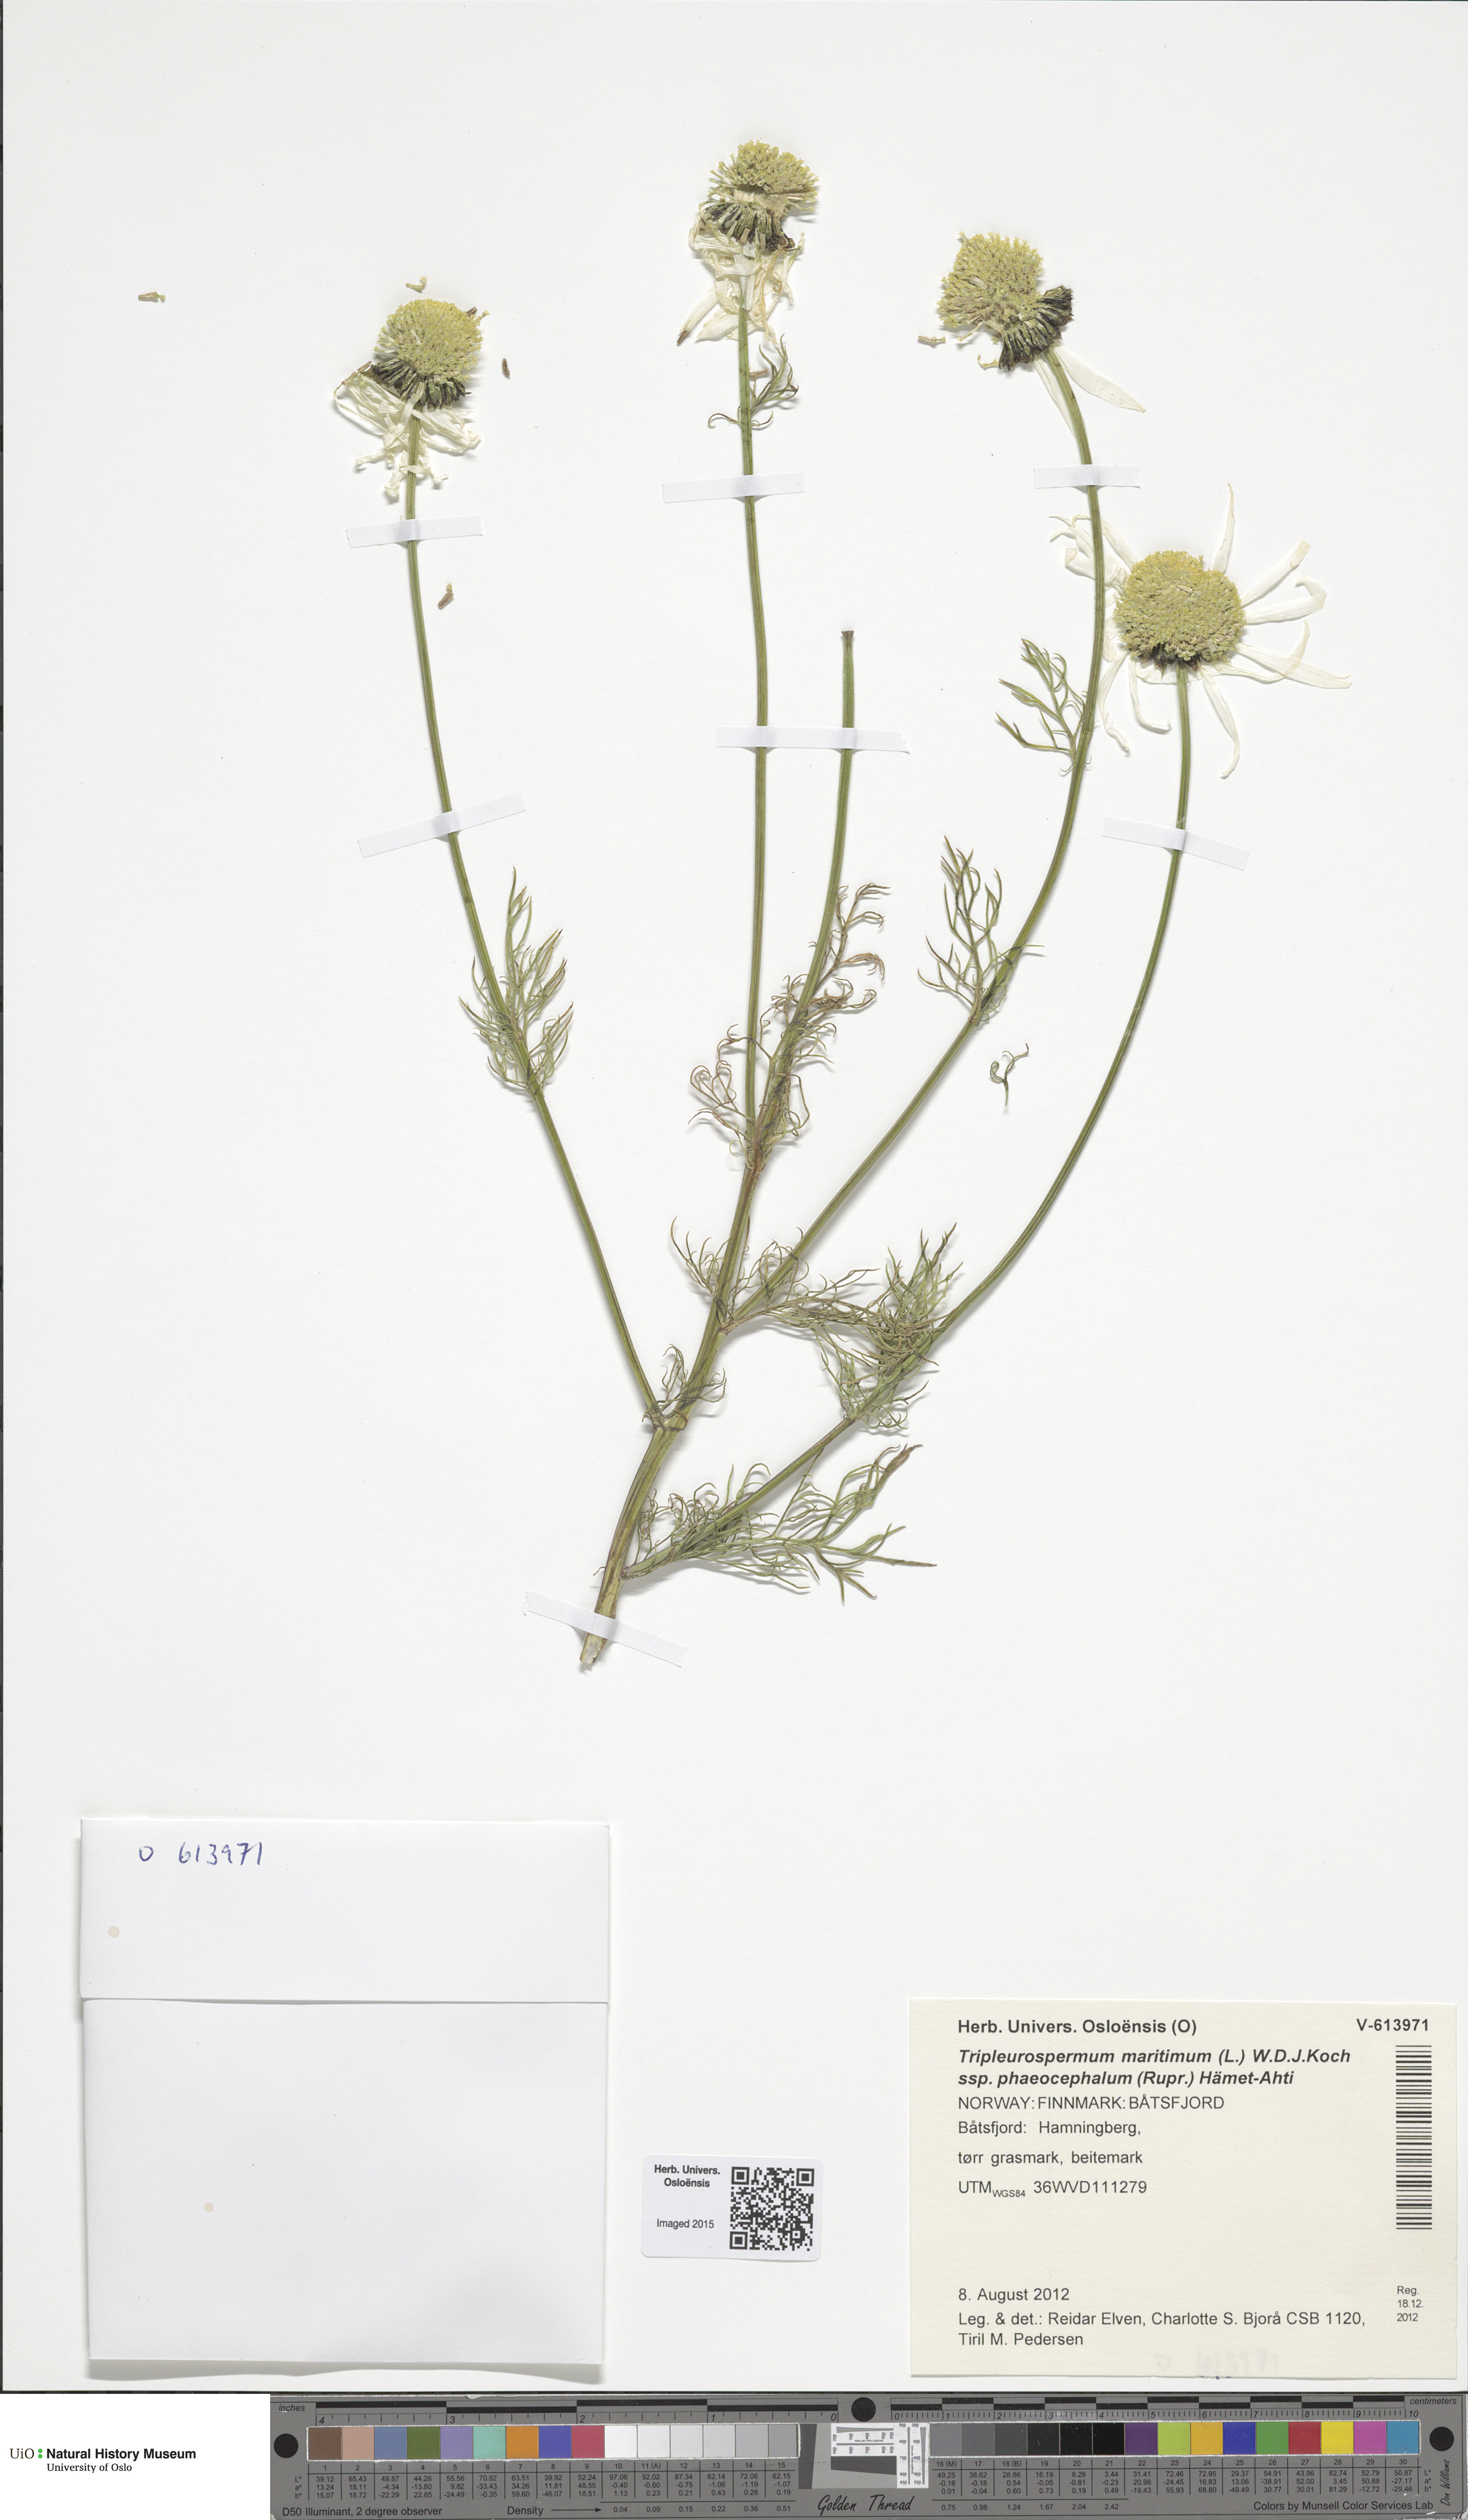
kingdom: Plantae
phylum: Tracheophyta
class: Magnoliopsida
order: Asterales
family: Asteraceae
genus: Tripleurospermum
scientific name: Tripleurospermum hookeri
